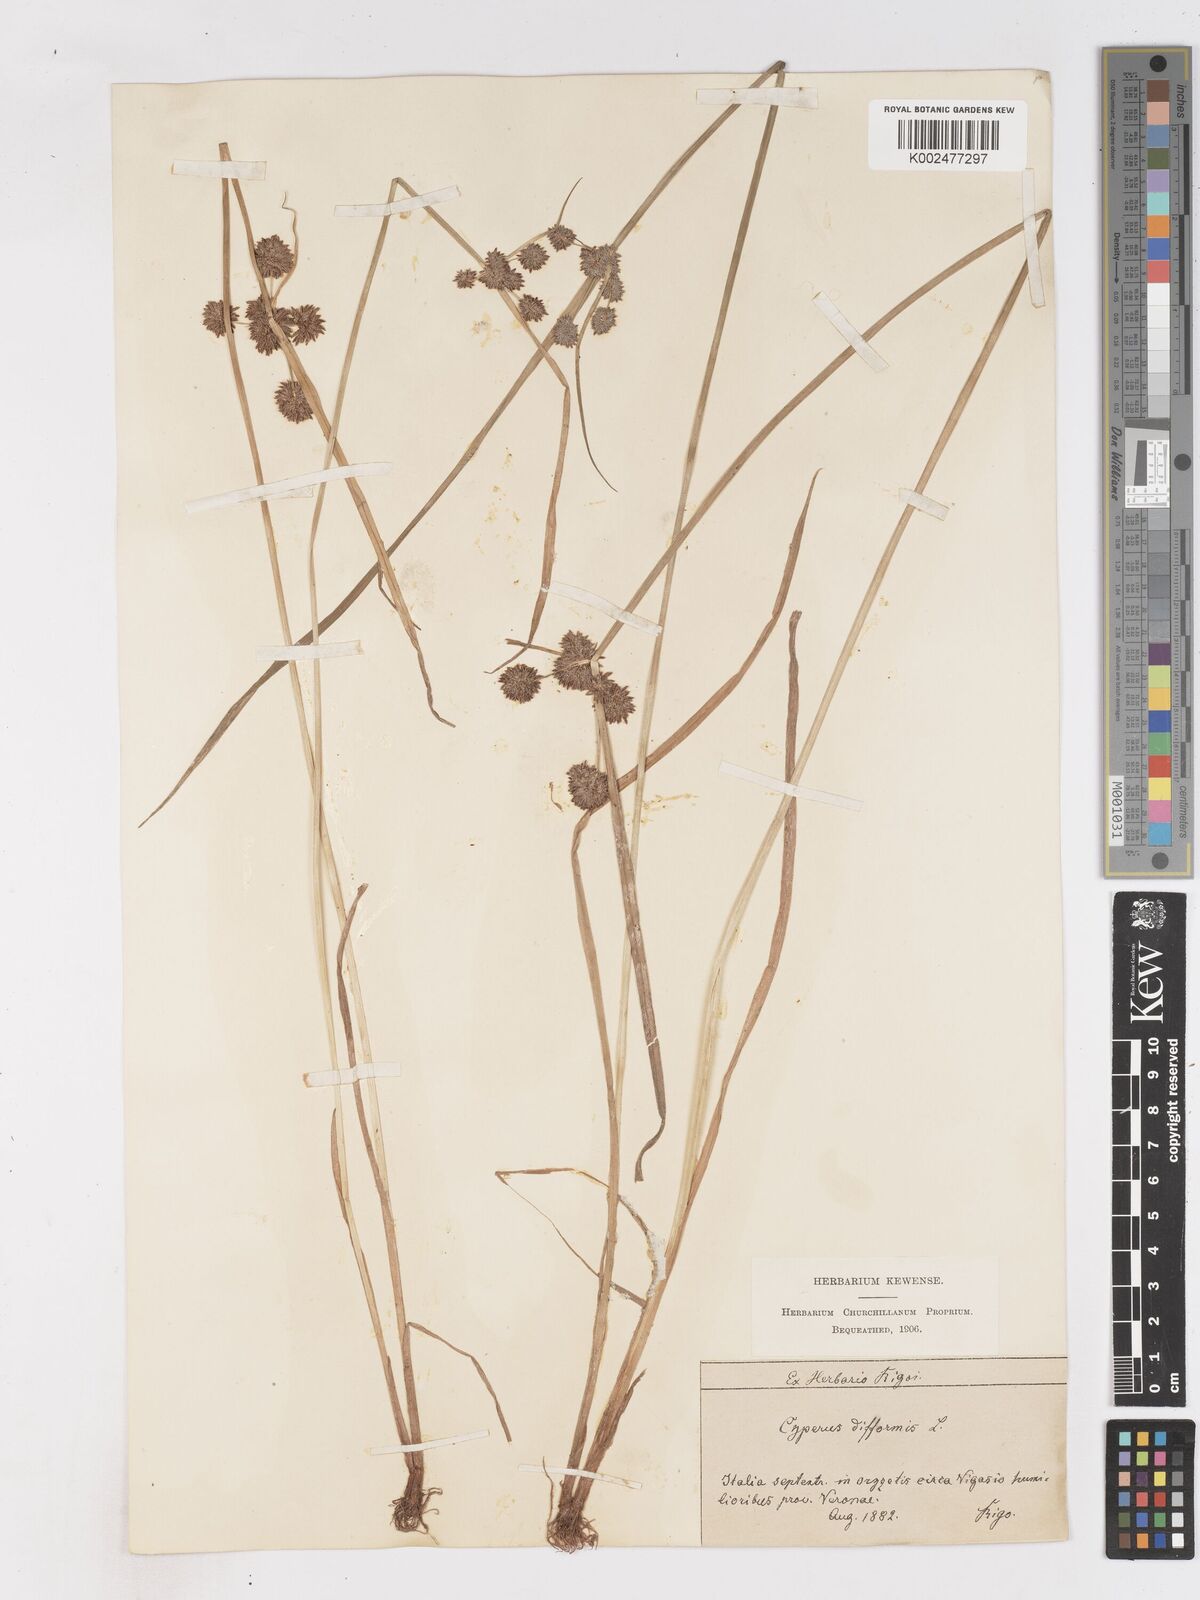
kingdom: Plantae
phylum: Tracheophyta
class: Liliopsida
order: Poales
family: Cyperaceae
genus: Cyperus
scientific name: Cyperus difformis
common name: Variable flatsedge
